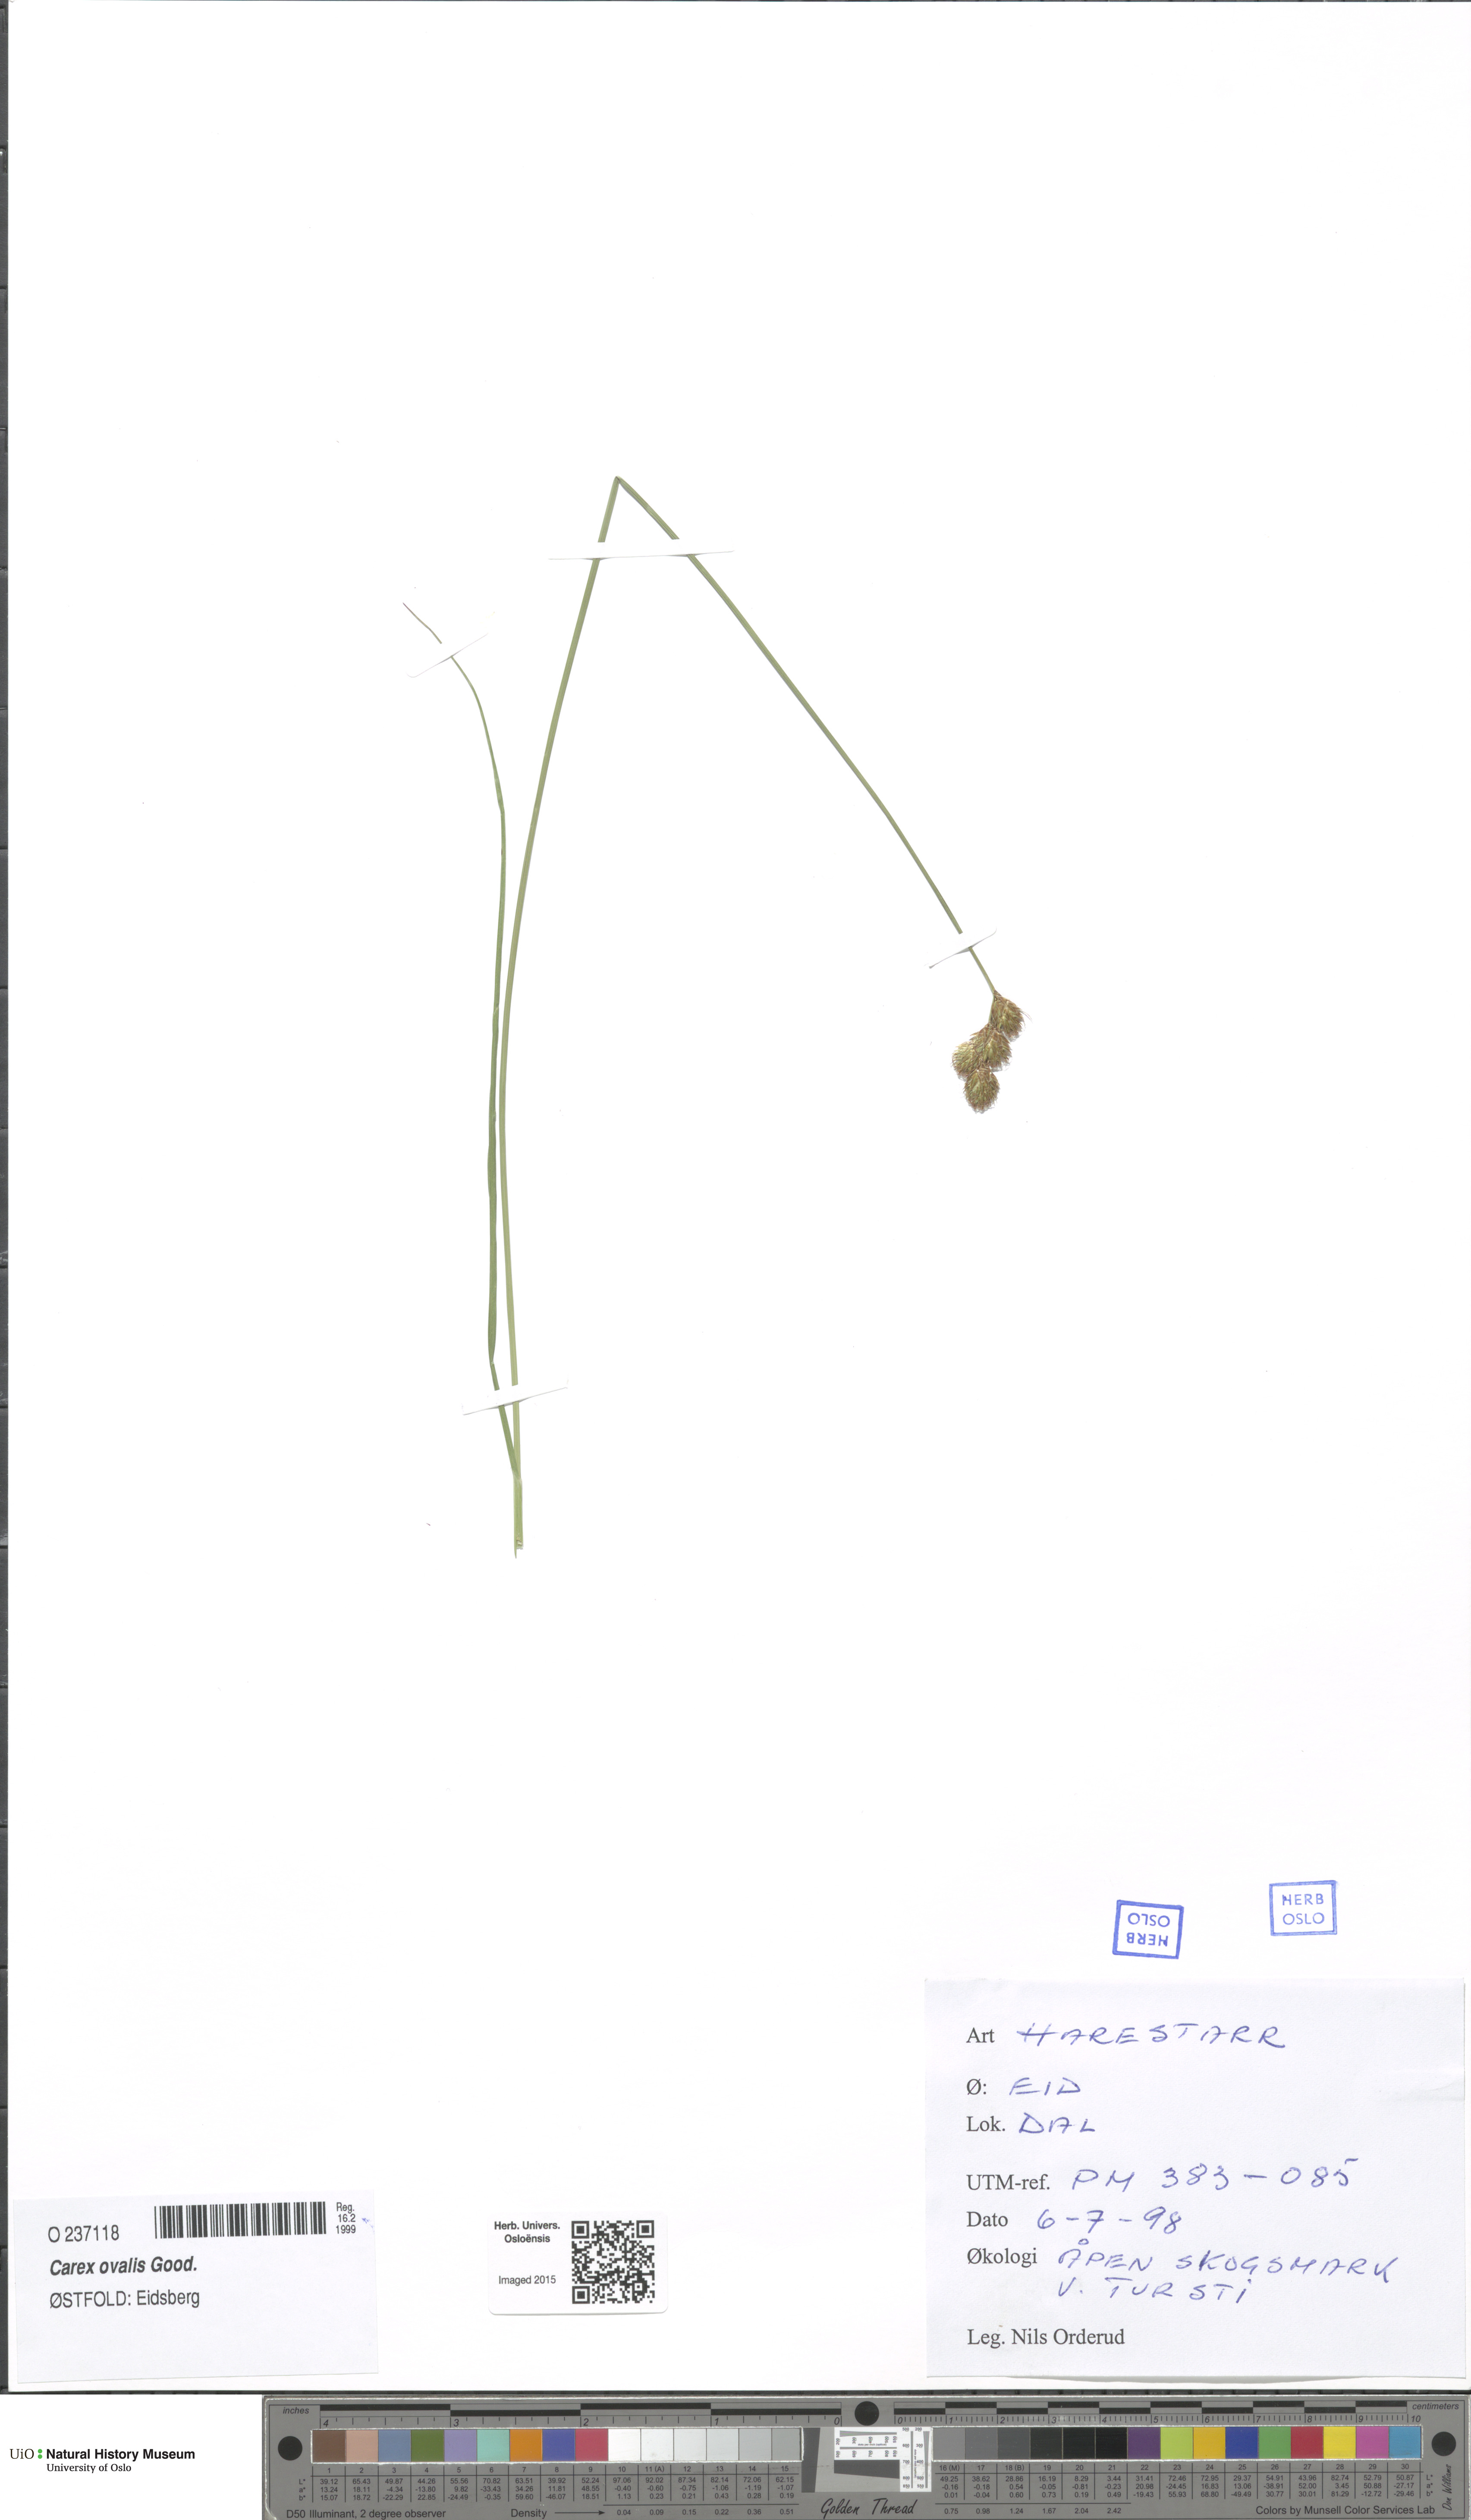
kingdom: Plantae
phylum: Tracheophyta
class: Liliopsida
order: Poales
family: Cyperaceae
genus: Carex
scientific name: Carex leporina
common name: Oval sedge
